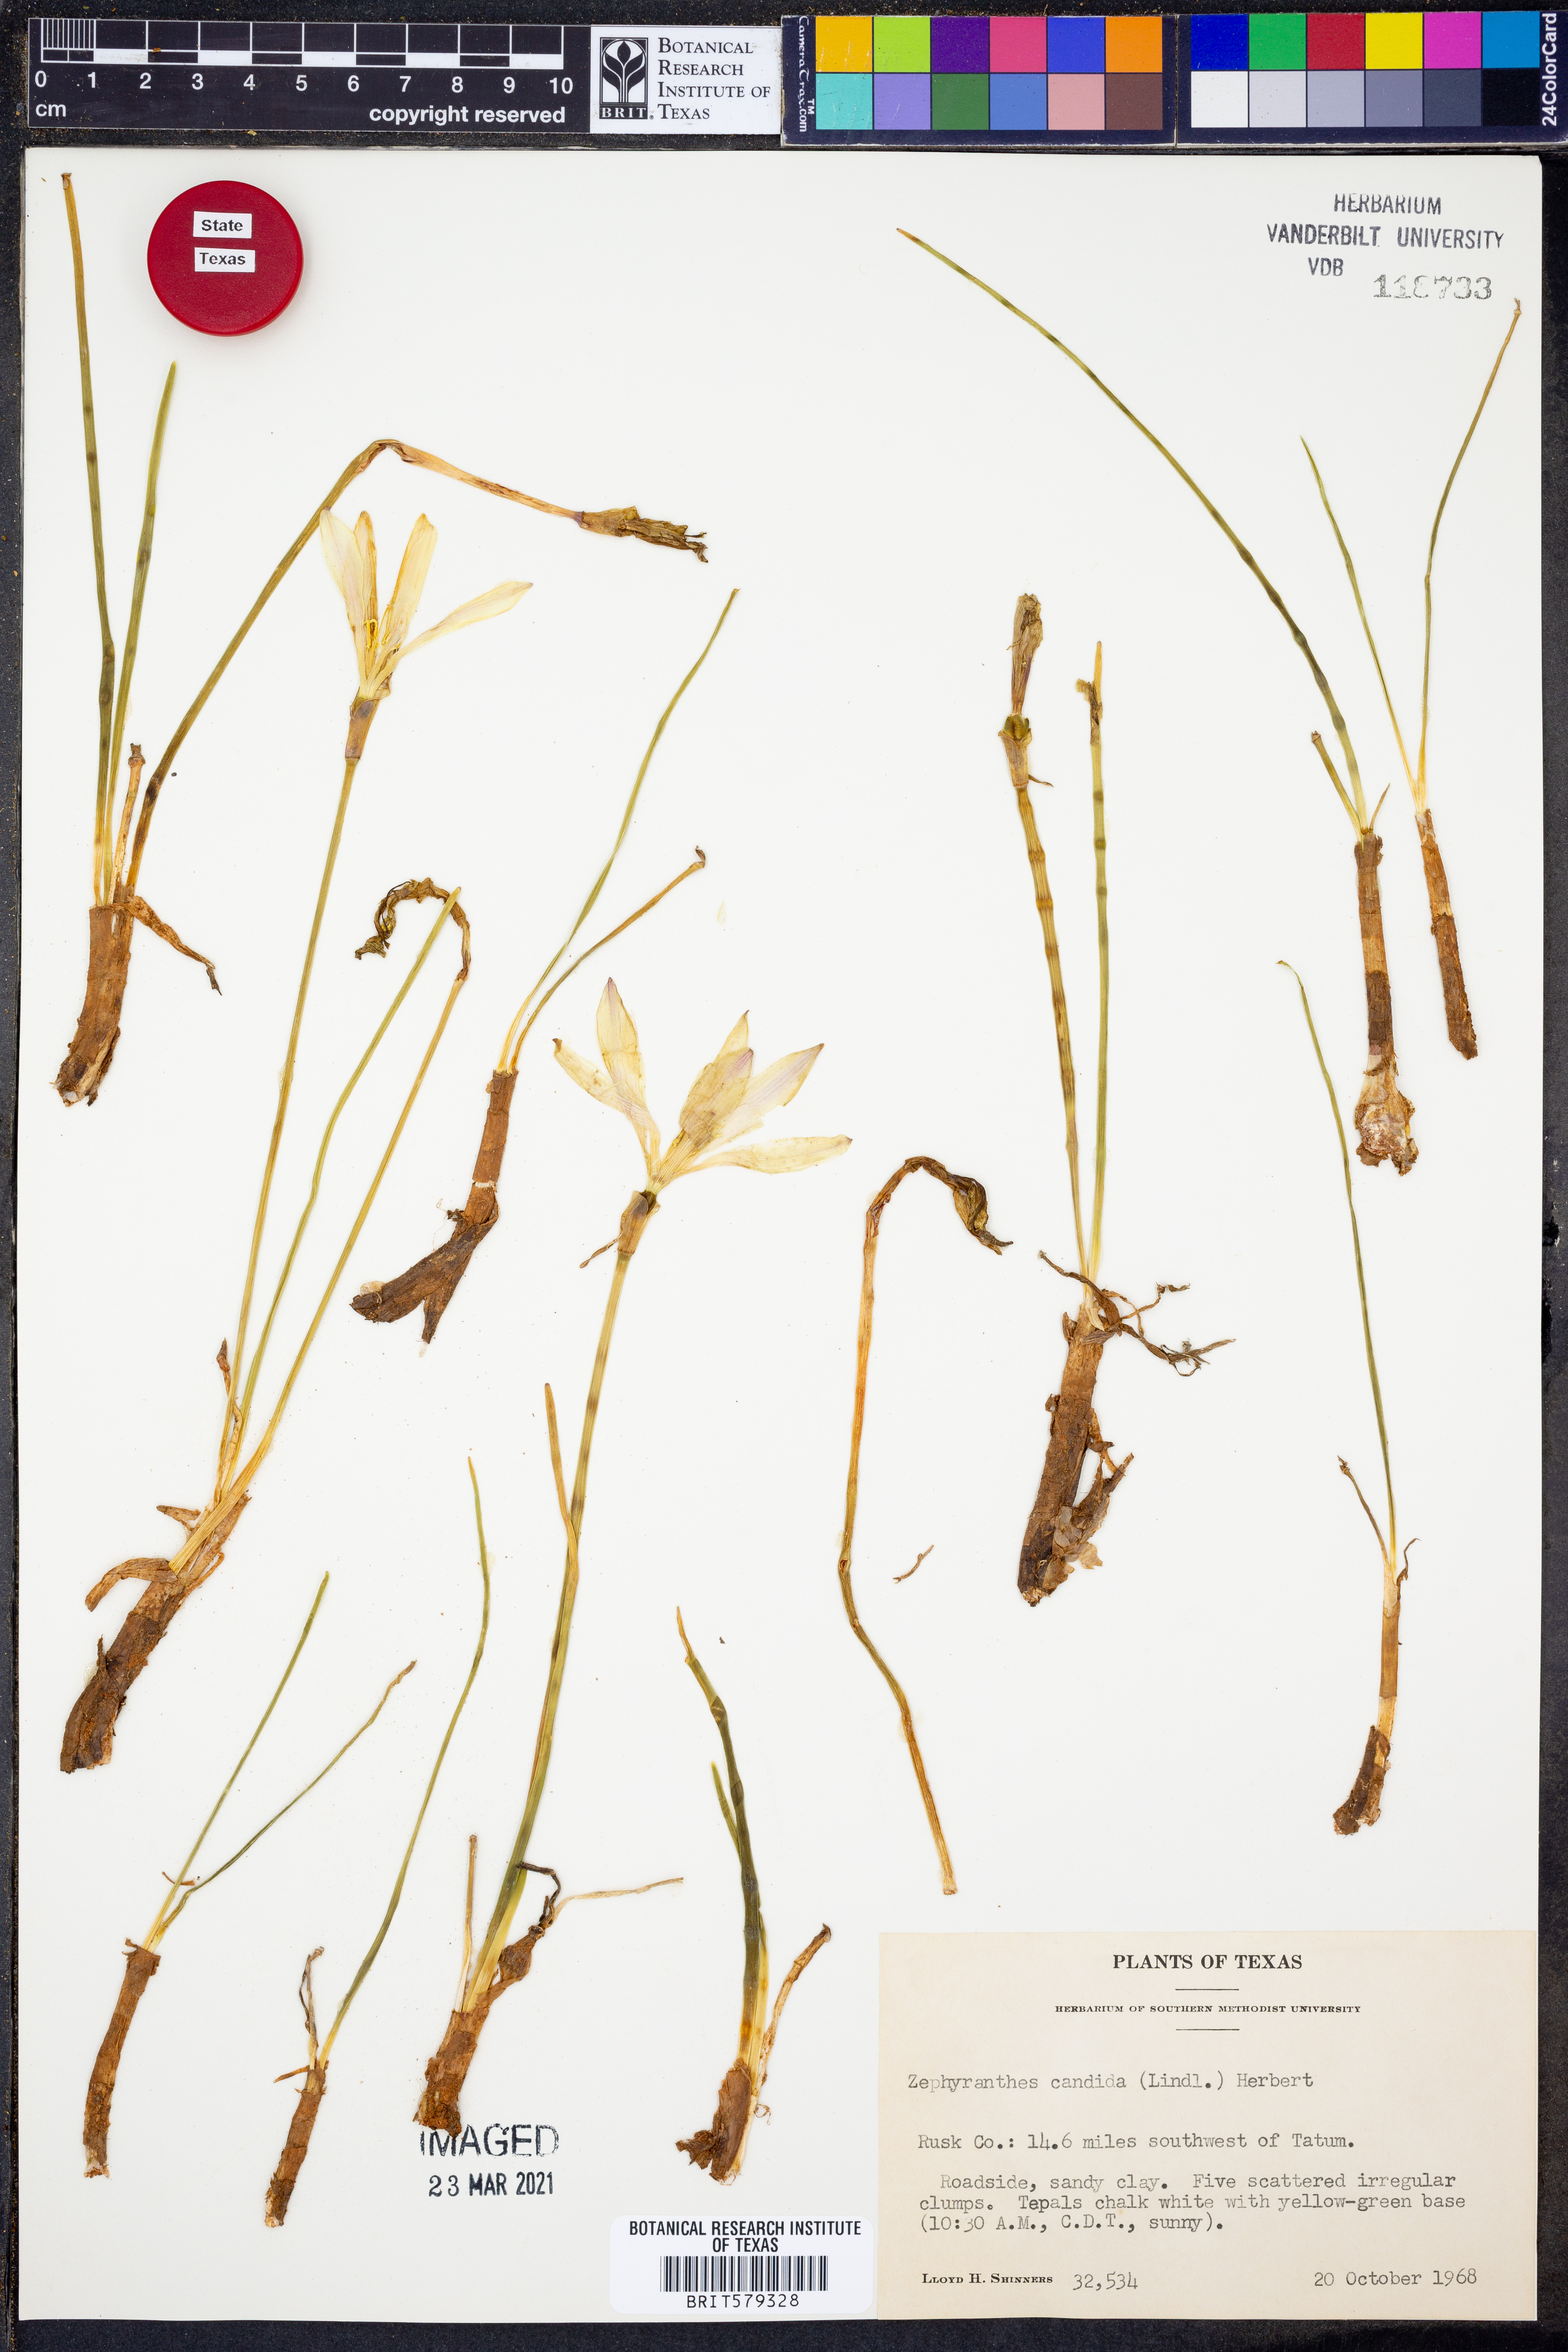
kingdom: Plantae
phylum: Tracheophyta
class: Liliopsida
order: Asparagales
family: Amaryllidaceae
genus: Zephyranthes
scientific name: Zephyranthes candida
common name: Autumn zephyrlily
